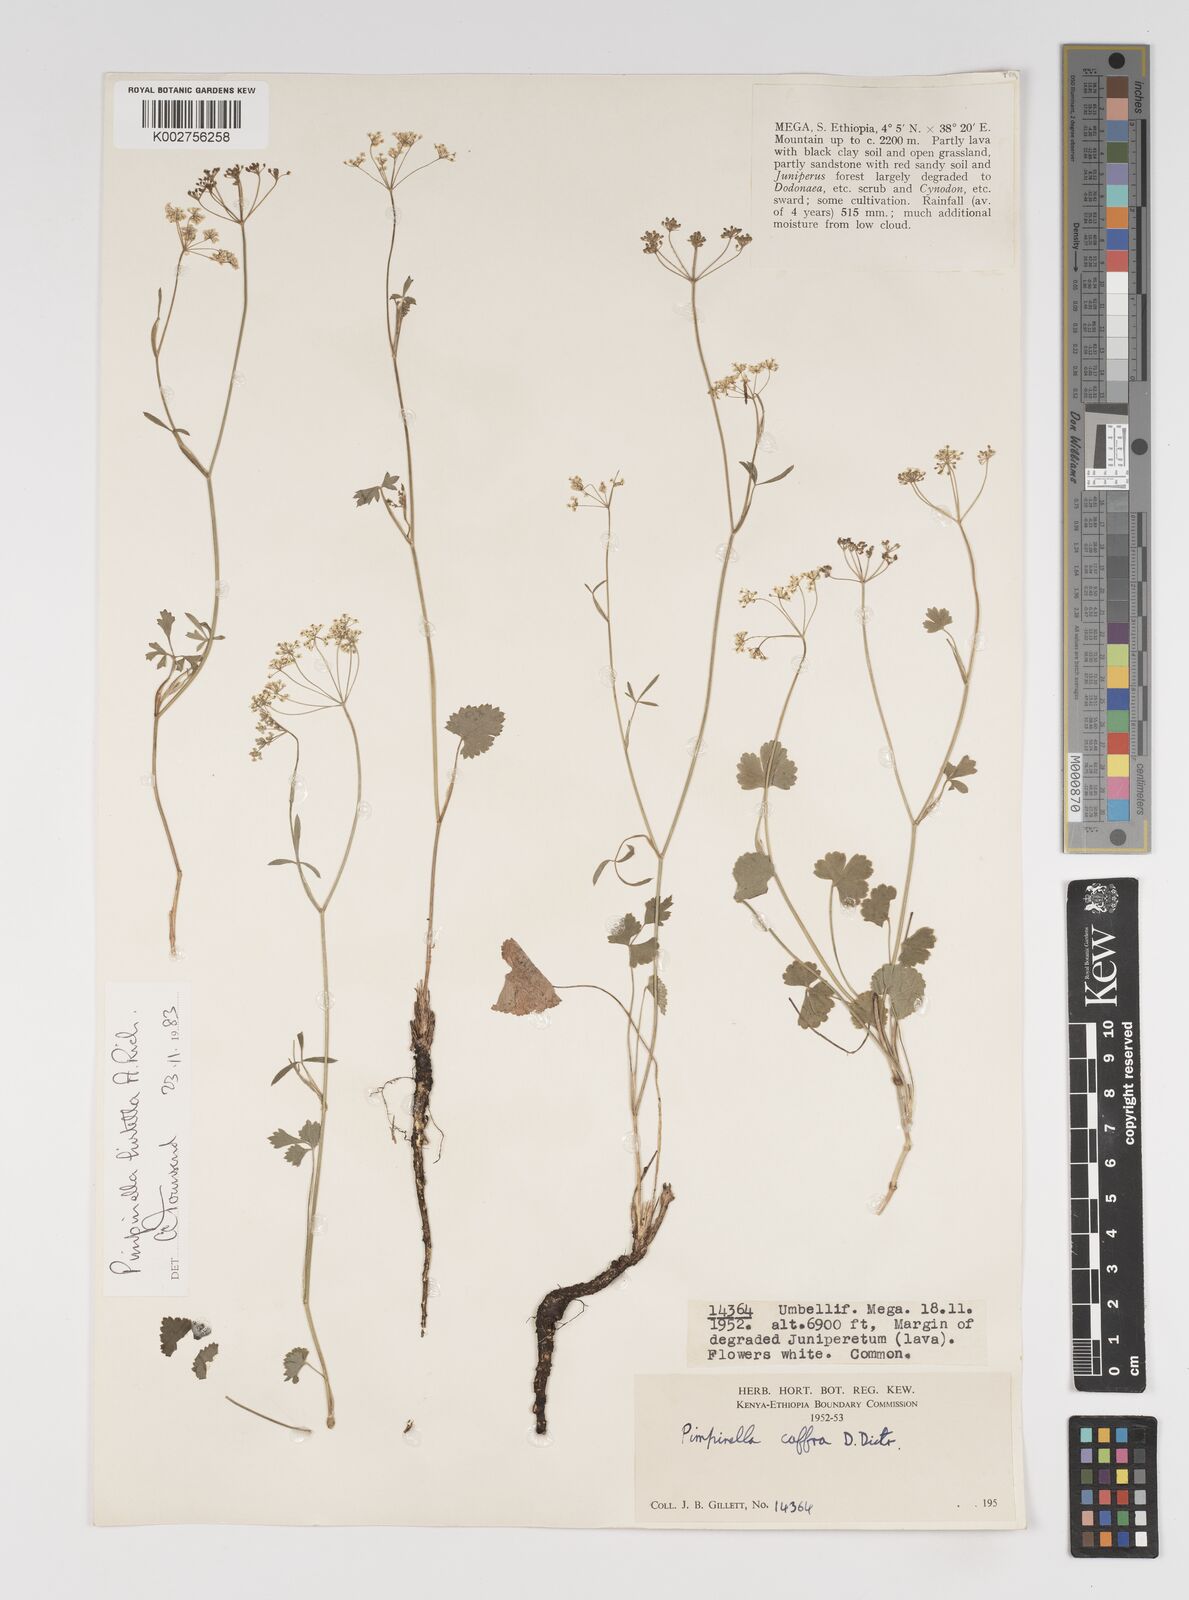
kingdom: Plantae
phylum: Tracheophyta
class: Magnoliopsida
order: Apiales
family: Apiaceae
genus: Pimpinella
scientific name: Pimpinella hirtella
